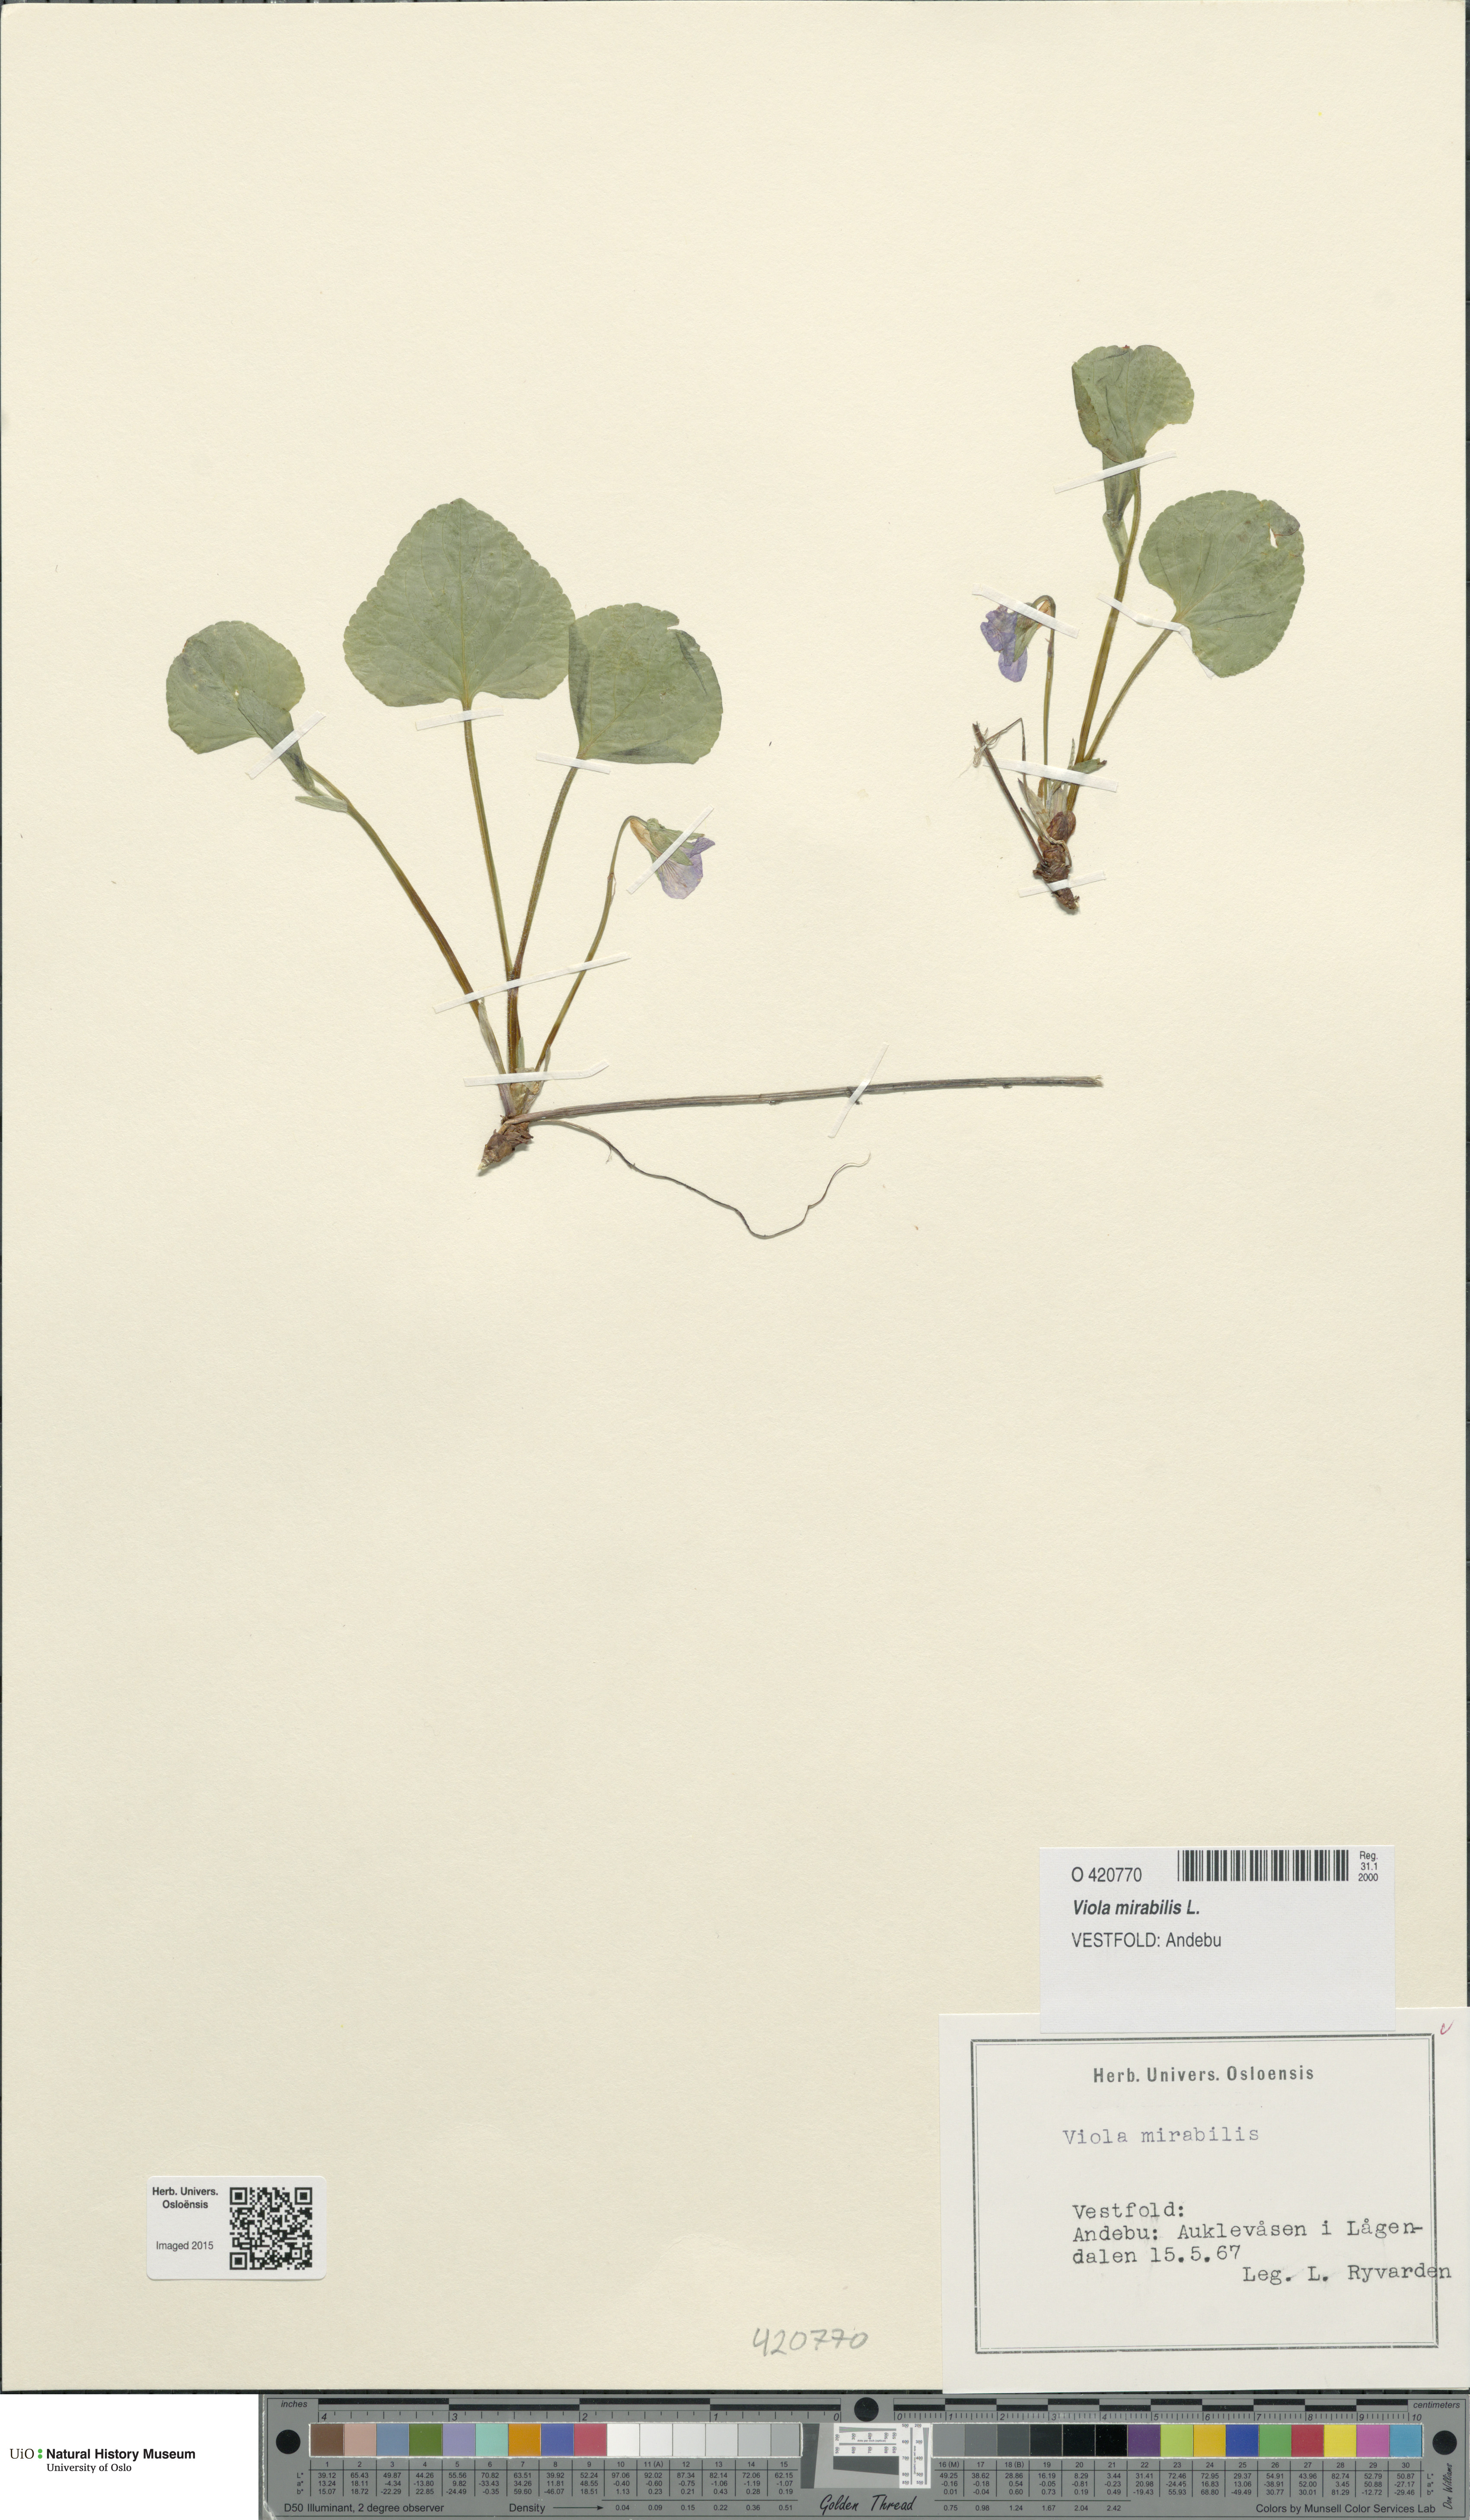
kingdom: Plantae
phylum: Tracheophyta
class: Magnoliopsida
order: Malpighiales
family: Violaceae
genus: Viola
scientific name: Viola mirabilis
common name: Wonder violet
